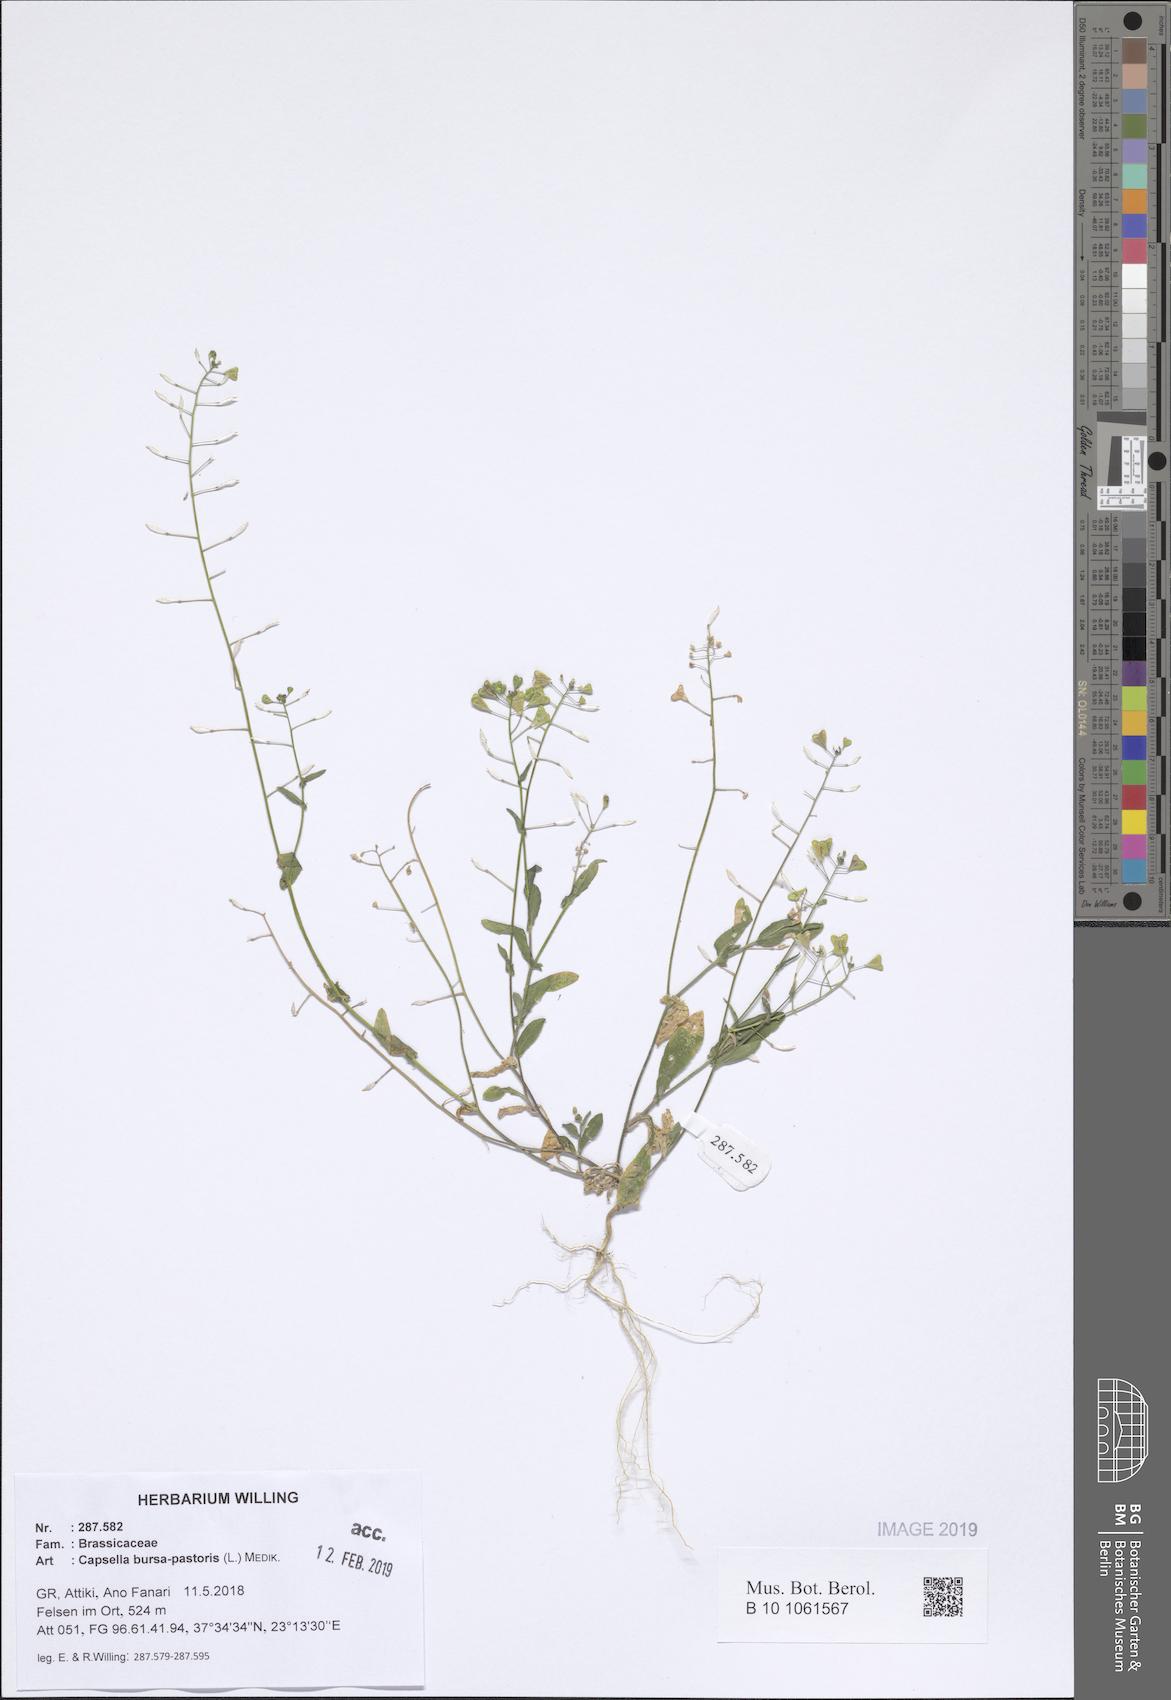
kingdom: Plantae
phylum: Tracheophyta
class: Magnoliopsida
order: Brassicales
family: Brassicaceae
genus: Capsella
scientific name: Capsella bursa-pastoris
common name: Shepherd's purse
